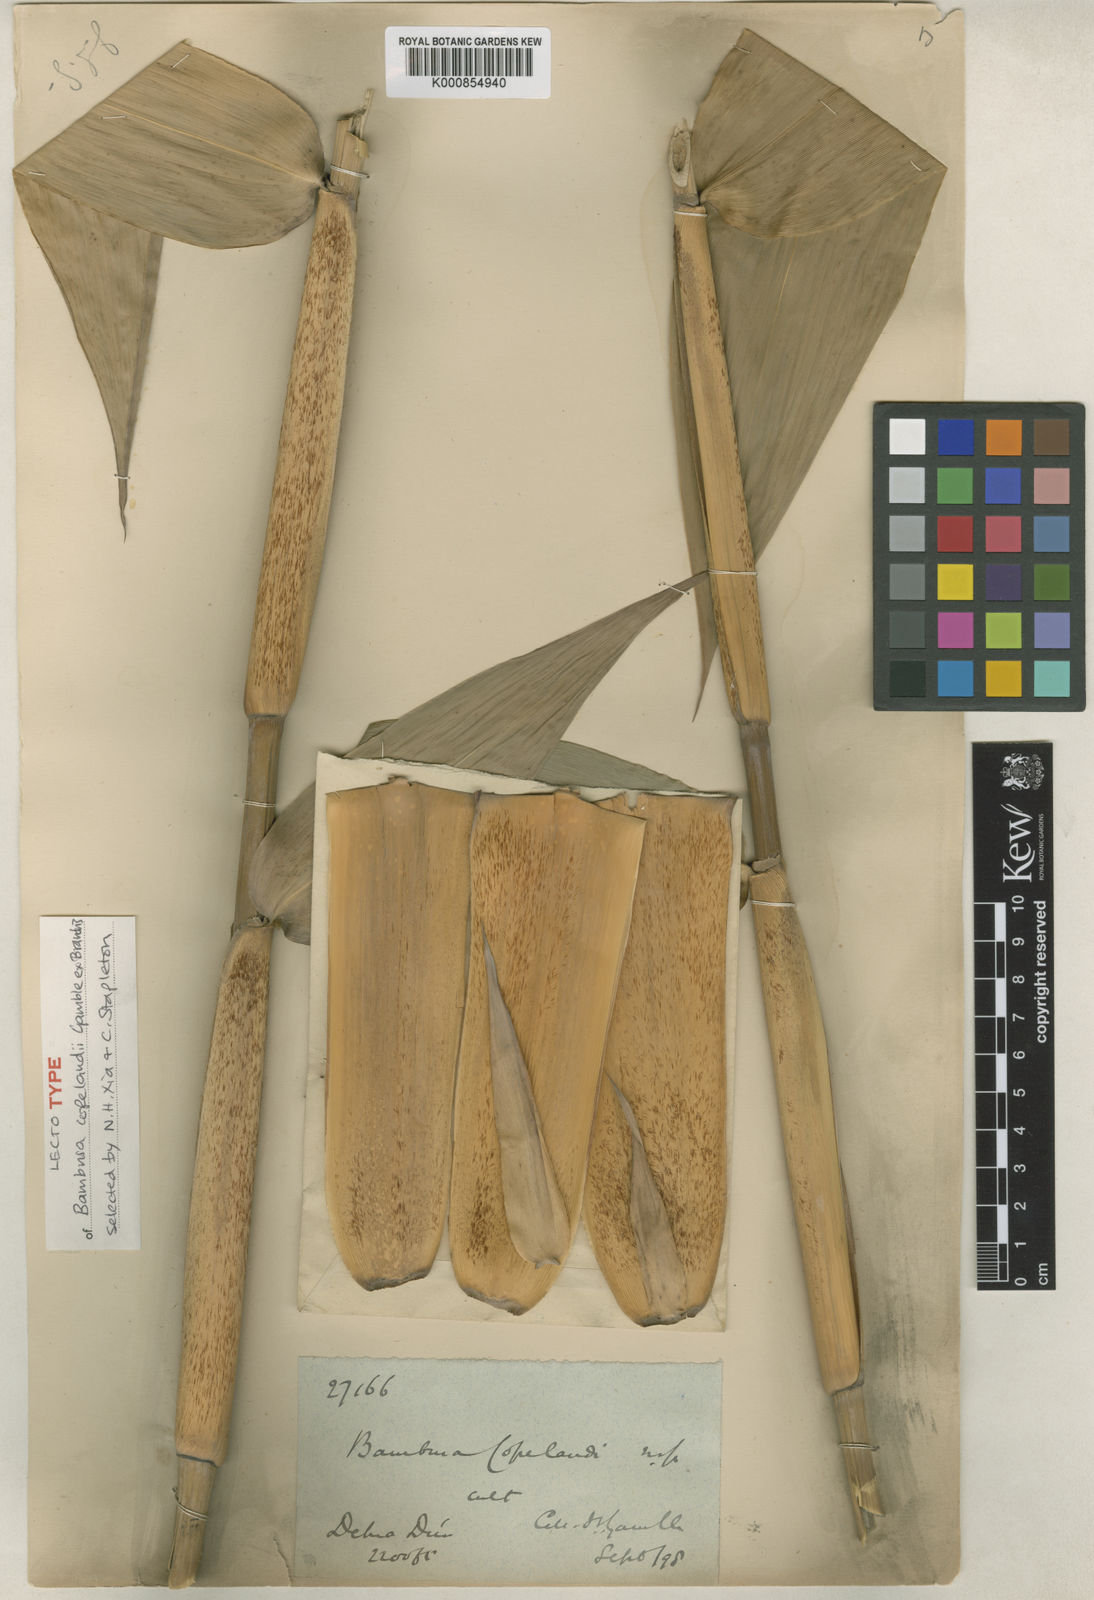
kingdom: Plantae
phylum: Tracheophyta
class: Liliopsida
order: Poales
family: Poaceae
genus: Bambusa
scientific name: Bambusa copelandii
